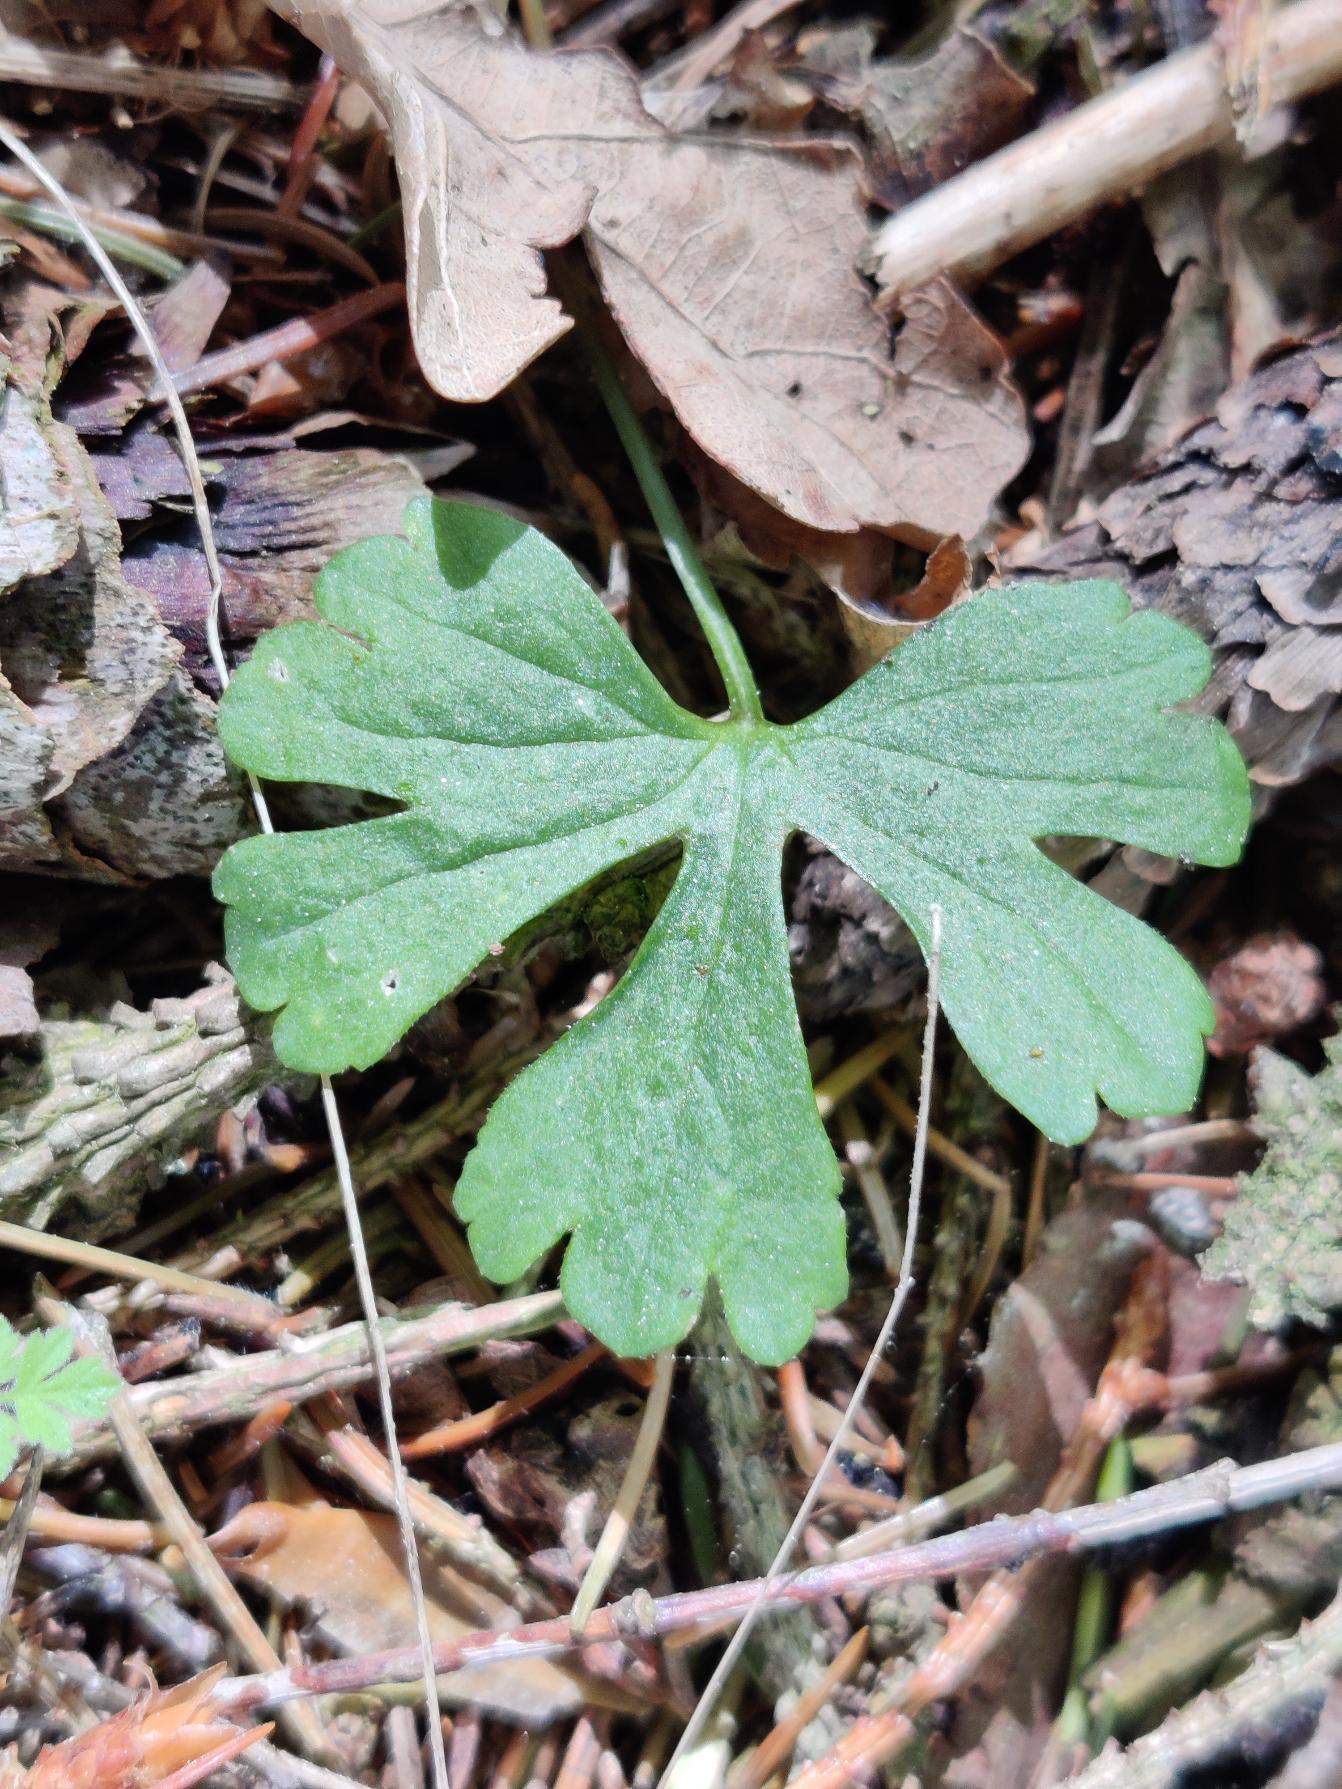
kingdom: Plantae
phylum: Tracheophyta
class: Magnoliopsida
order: Ranunculales
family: Ranunculaceae
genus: Ranunculus
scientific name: Ranunculus auricomus
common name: Nyrebladet ranunkel
